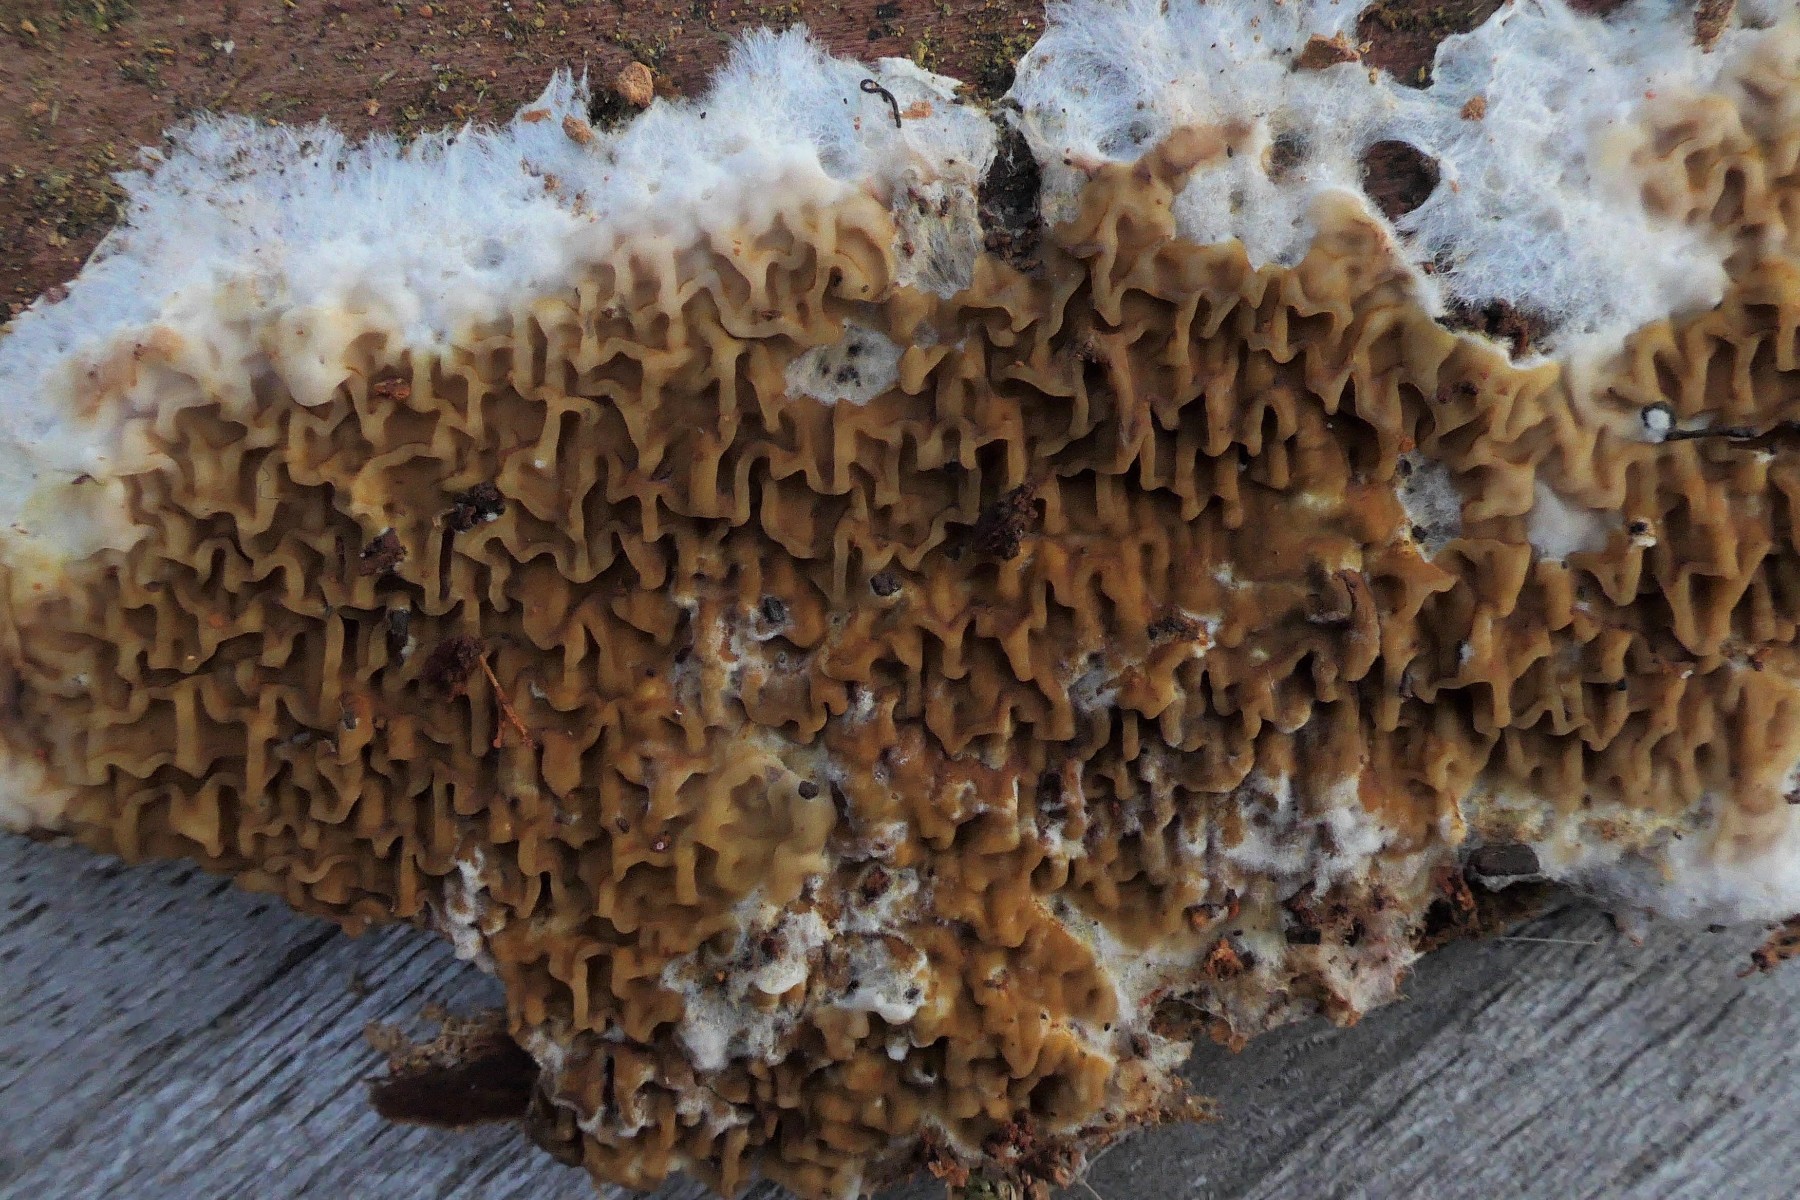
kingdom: Fungi
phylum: Basidiomycota
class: Agaricomycetes
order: Boletales
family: Serpulaceae
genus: Serpula
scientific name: Serpula himantioides
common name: tyndkødet hussvamp
